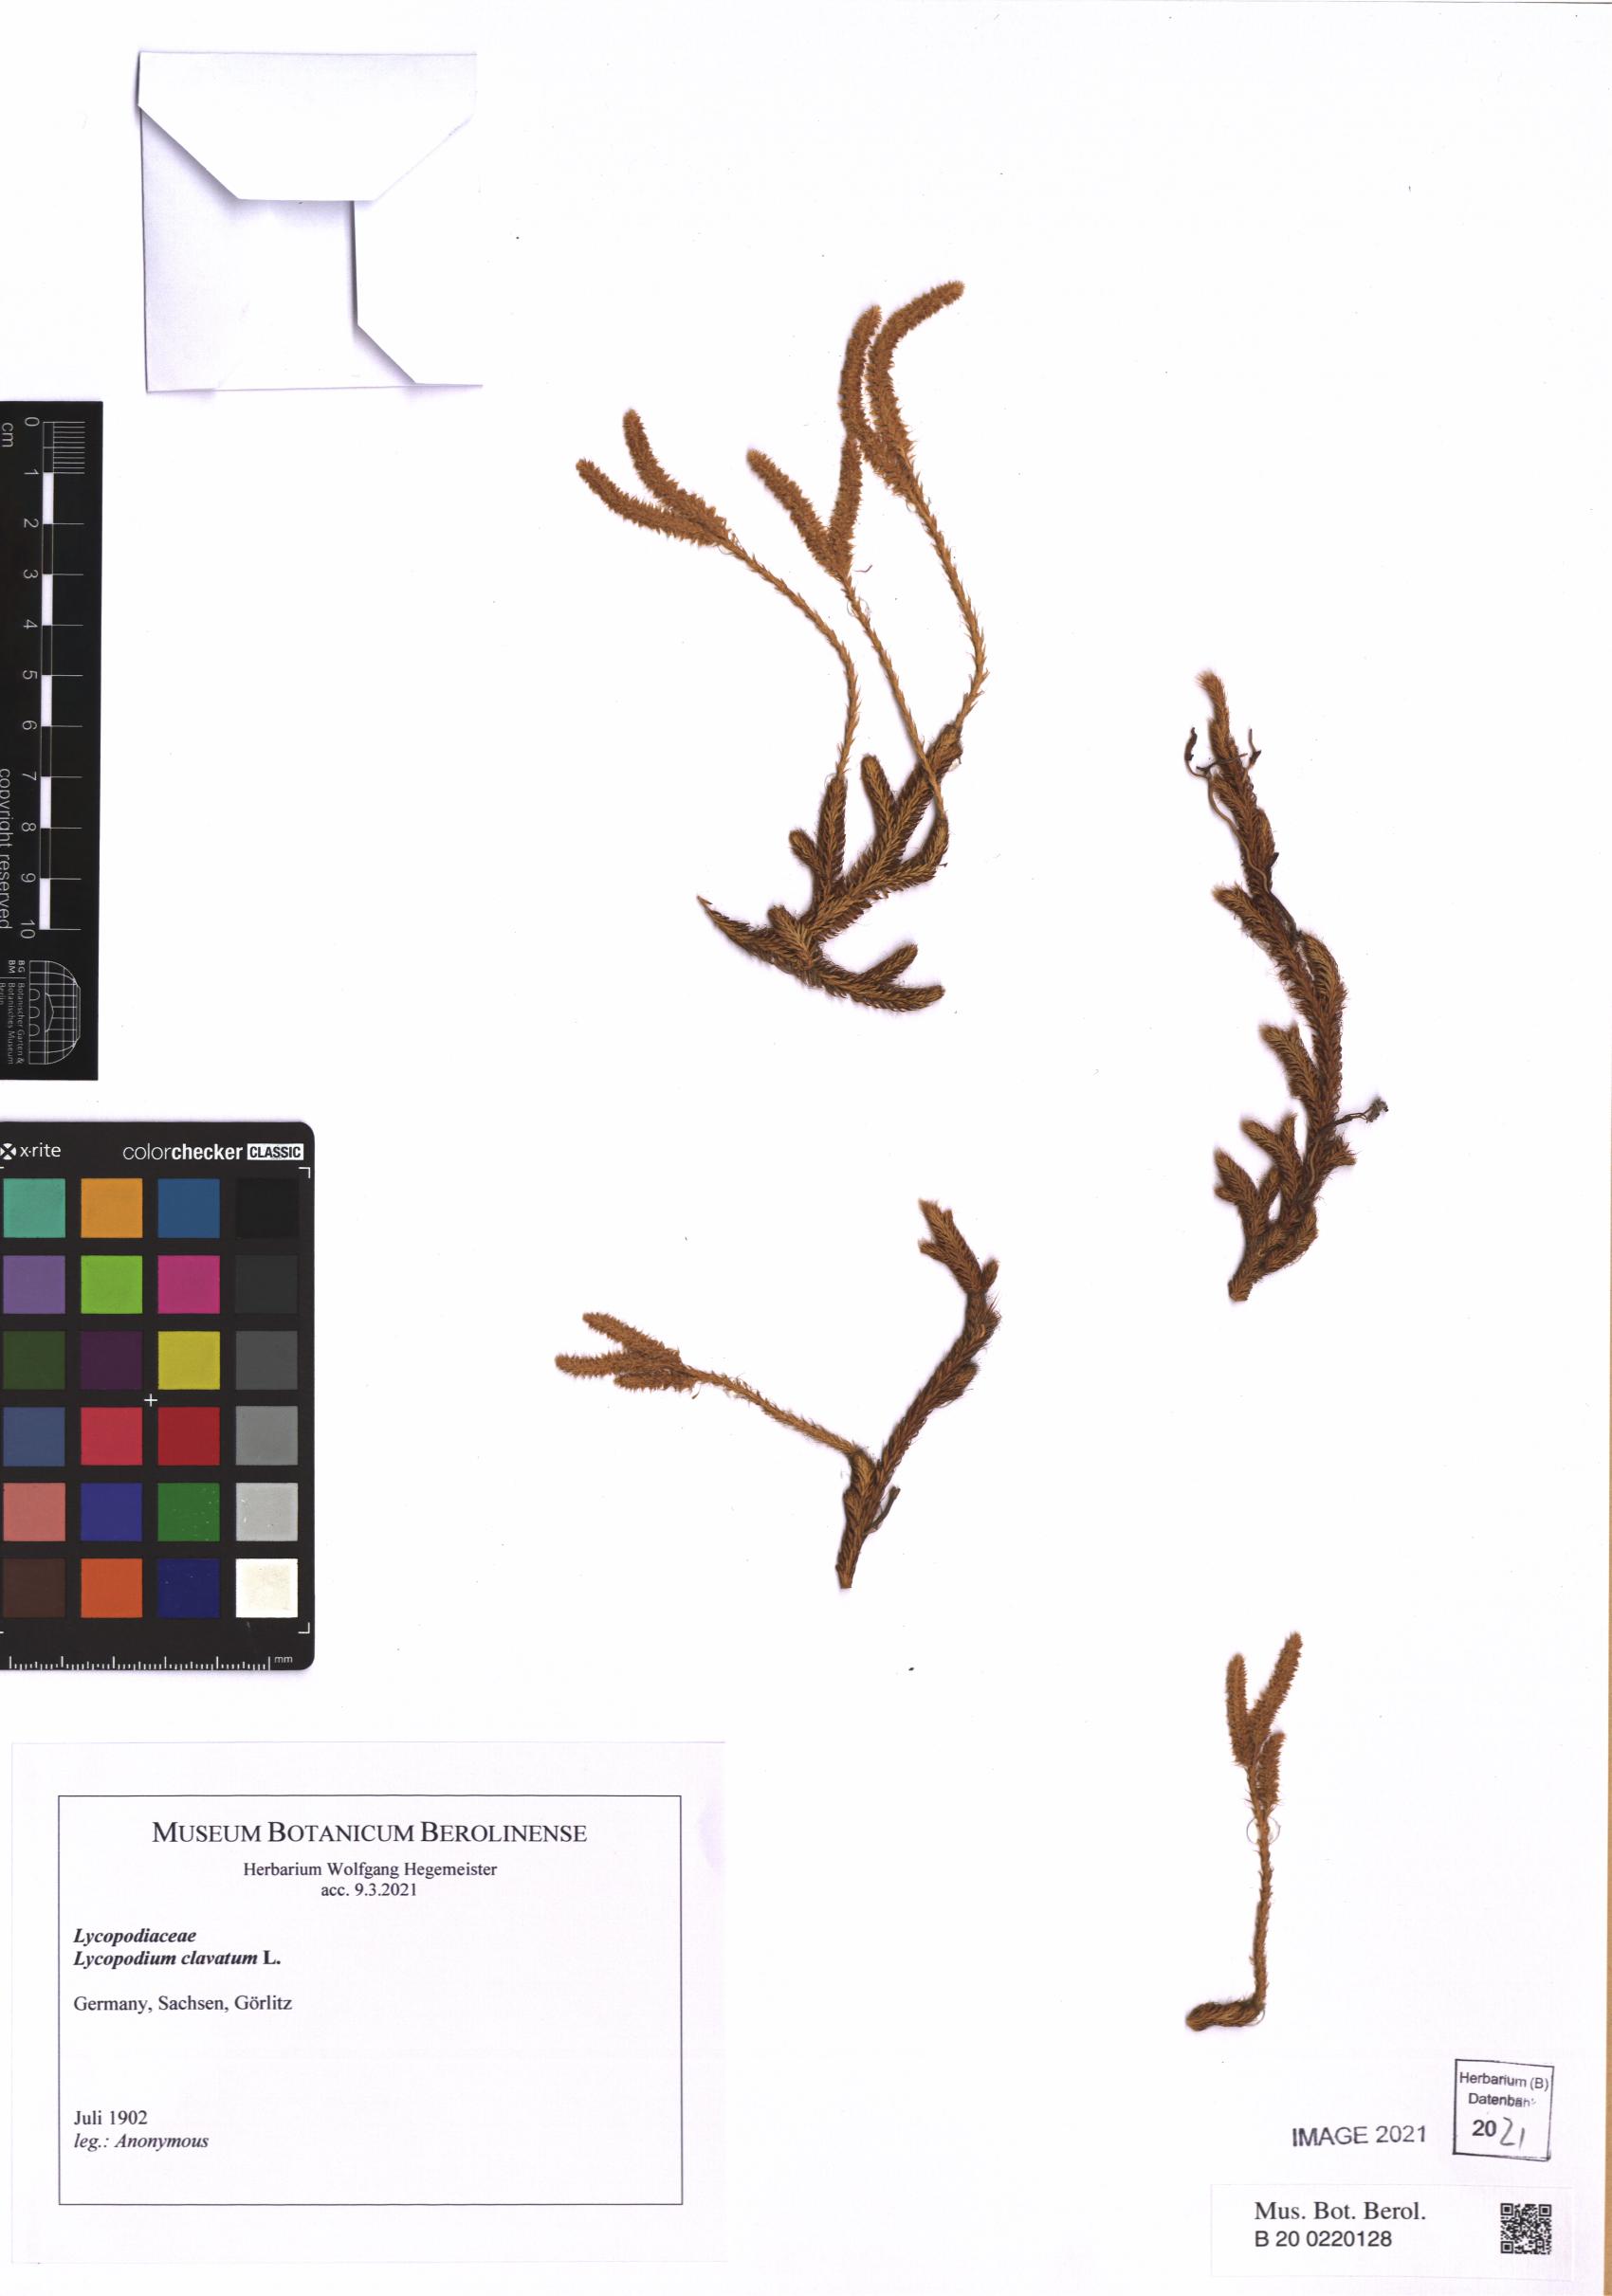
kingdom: Plantae
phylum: Tracheophyta
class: Lycopodiopsida
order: Lycopodiales
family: Lycopodiaceae
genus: Lycopodium
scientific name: Lycopodium clavatum
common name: Stag's-horn clubmoss
